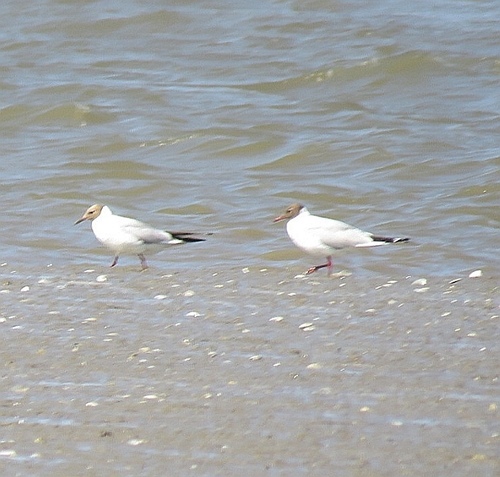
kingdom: Animalia
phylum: Chordata
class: Aves
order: Charadriiformes
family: Laridae
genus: Chroicocephalus
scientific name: Chroicocephalus ridibundus
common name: Black-headed gull
